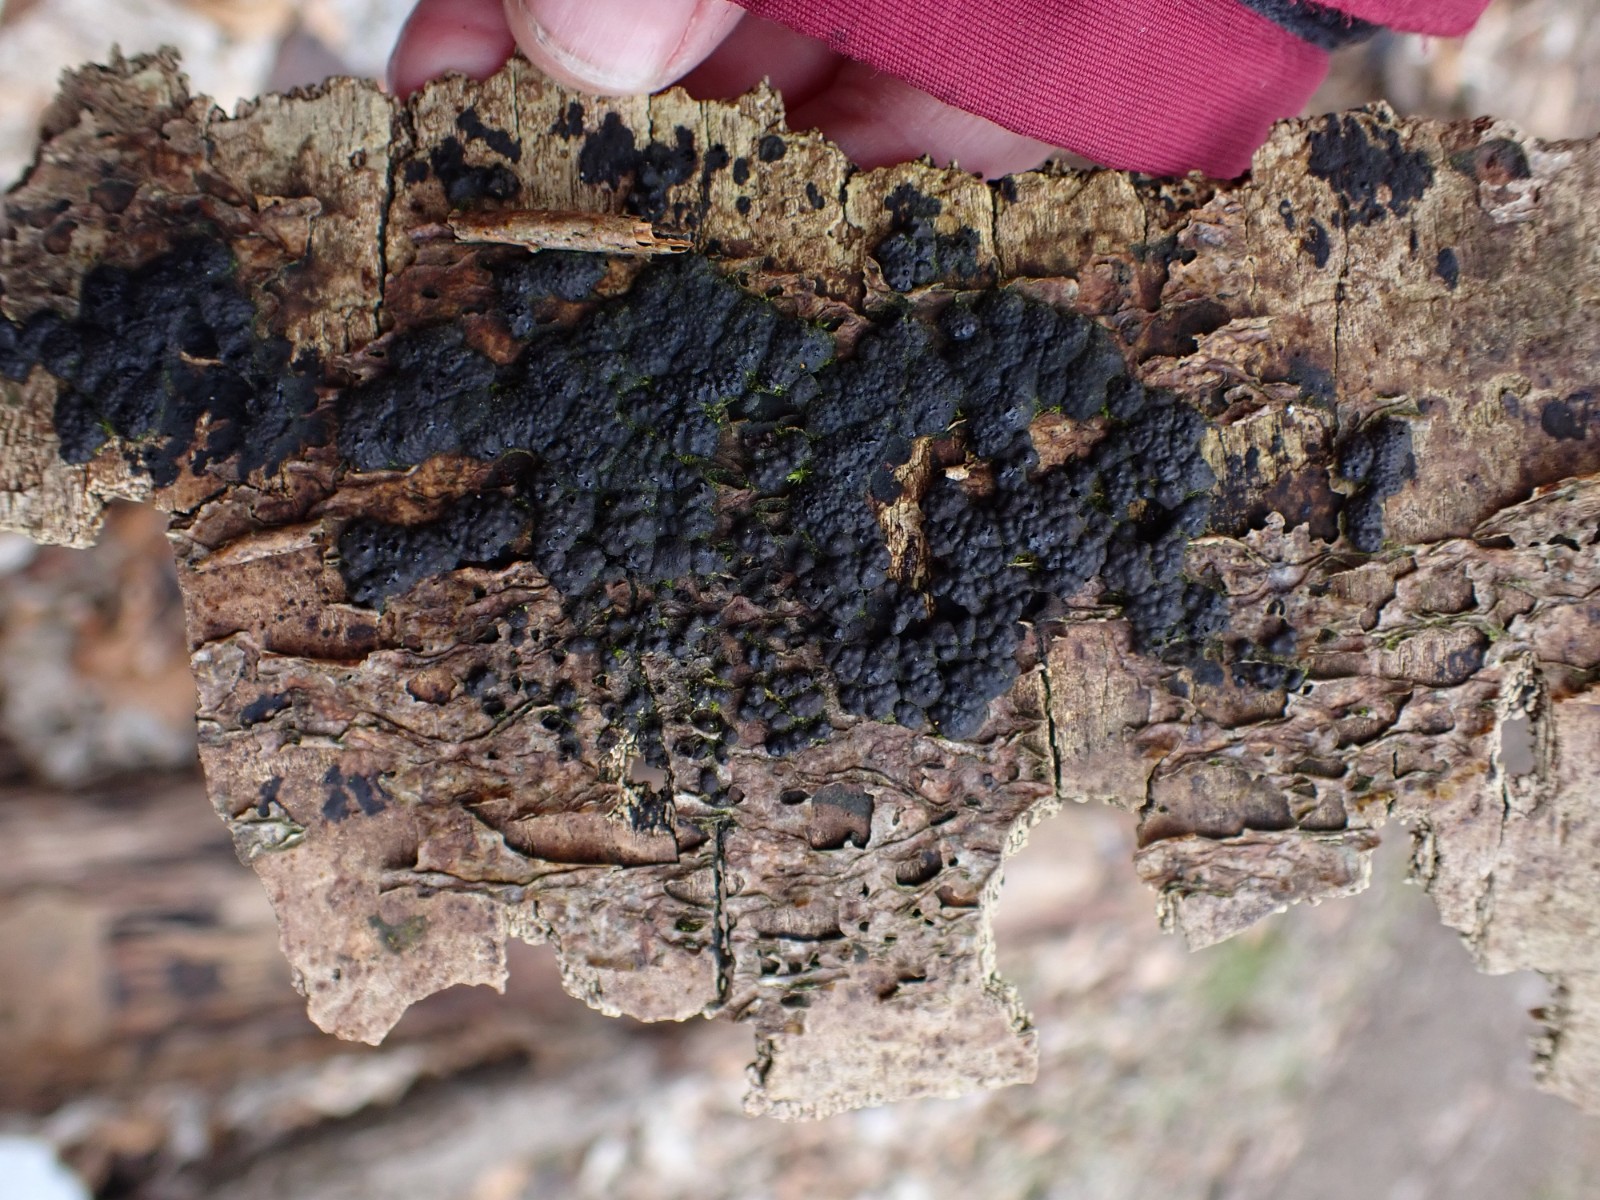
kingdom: Fungi
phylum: Ascomycota
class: Sordariomycetes
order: Xylariales
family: Hypoxylaceae
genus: Jackrogersella
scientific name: Jackrogersella multiformis
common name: foranderlig kulbær
